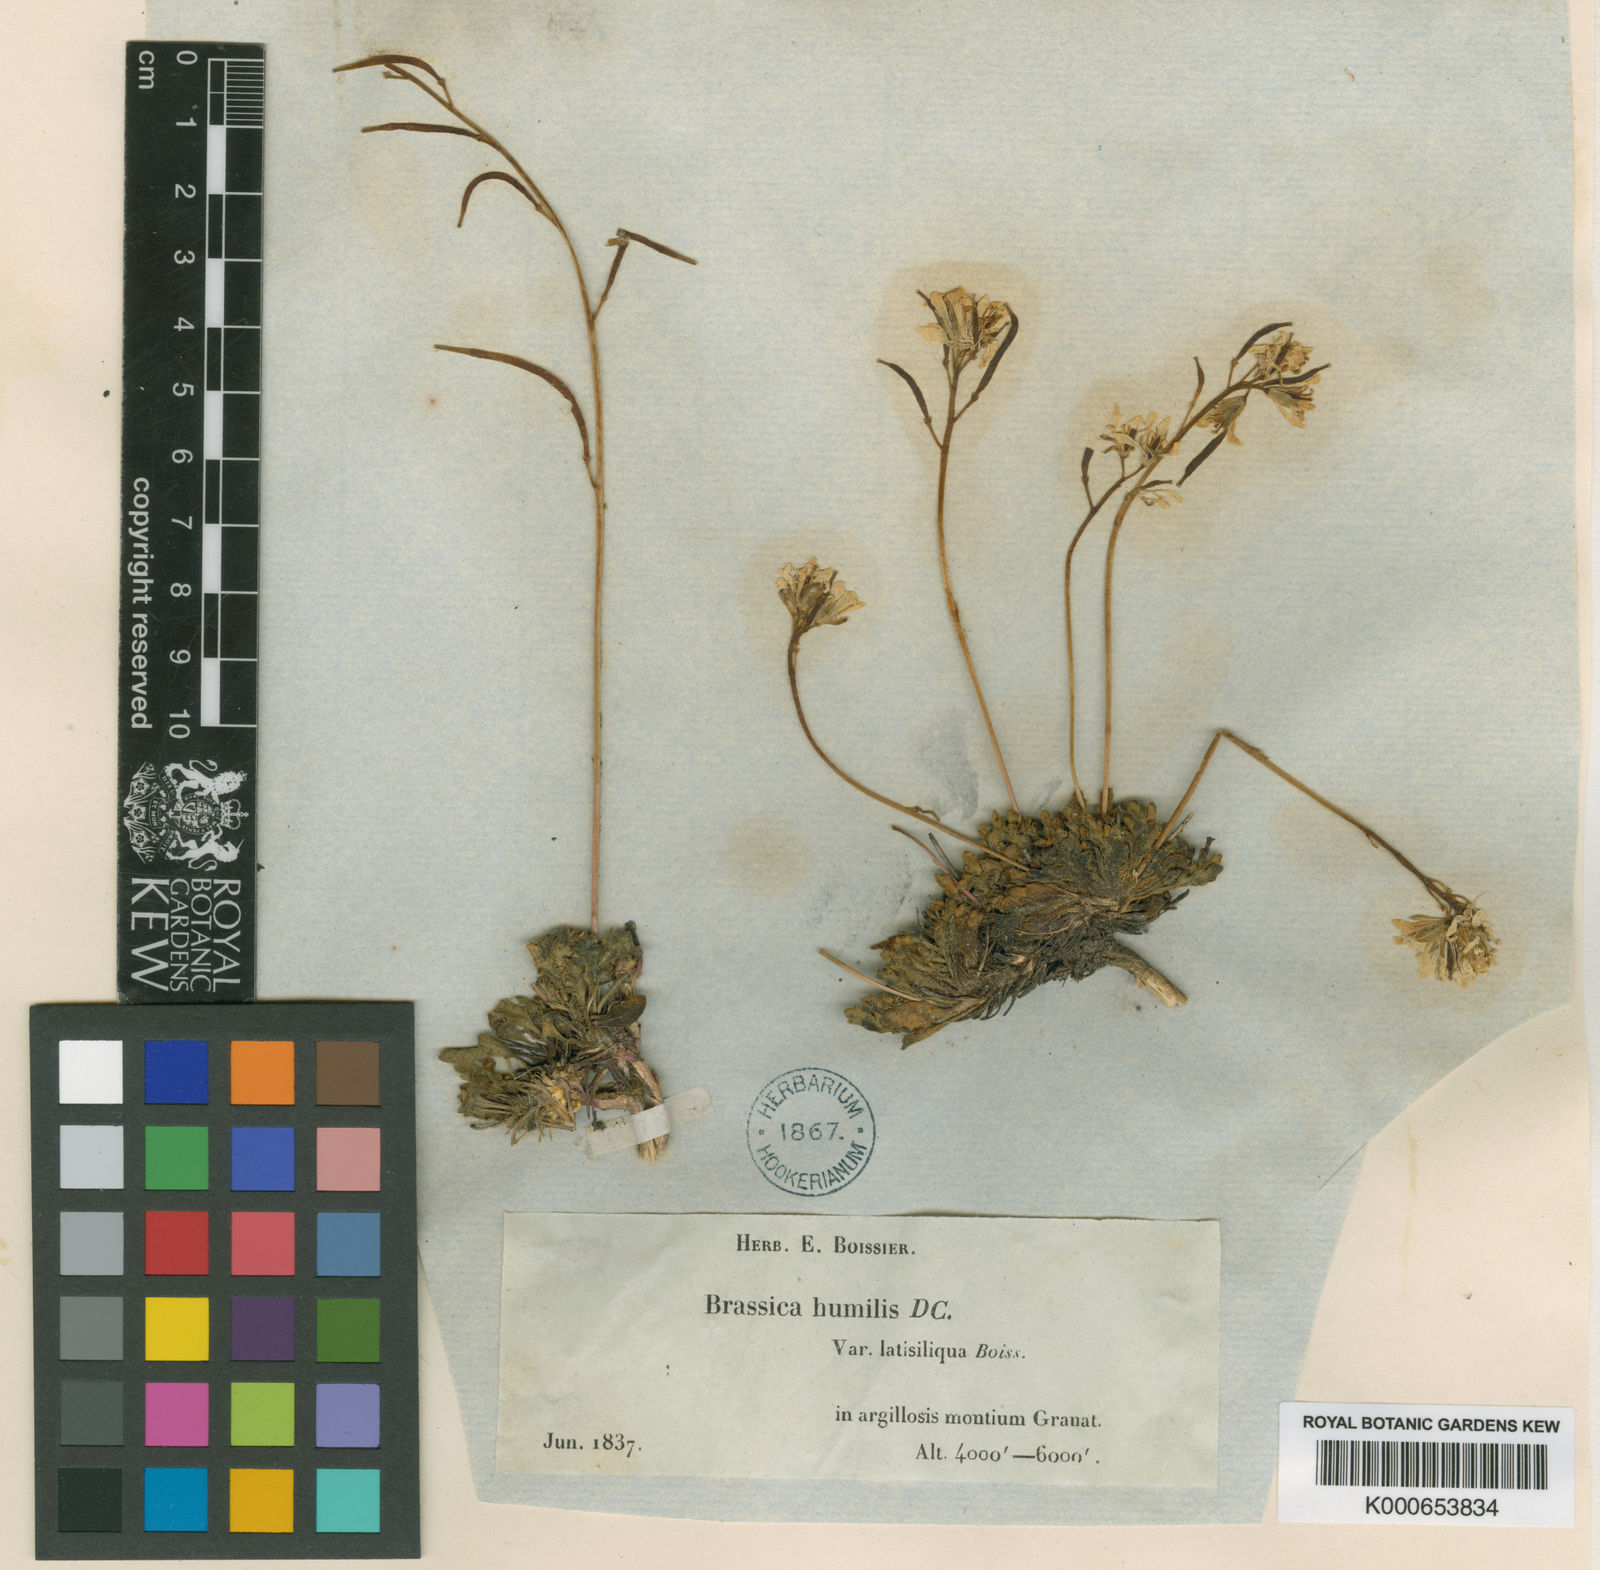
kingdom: Plantae
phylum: Tracheophyta
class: Magnoliopsida
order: Brassicales
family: Brassicaceae
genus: Brassica
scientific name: Brassica repanda
